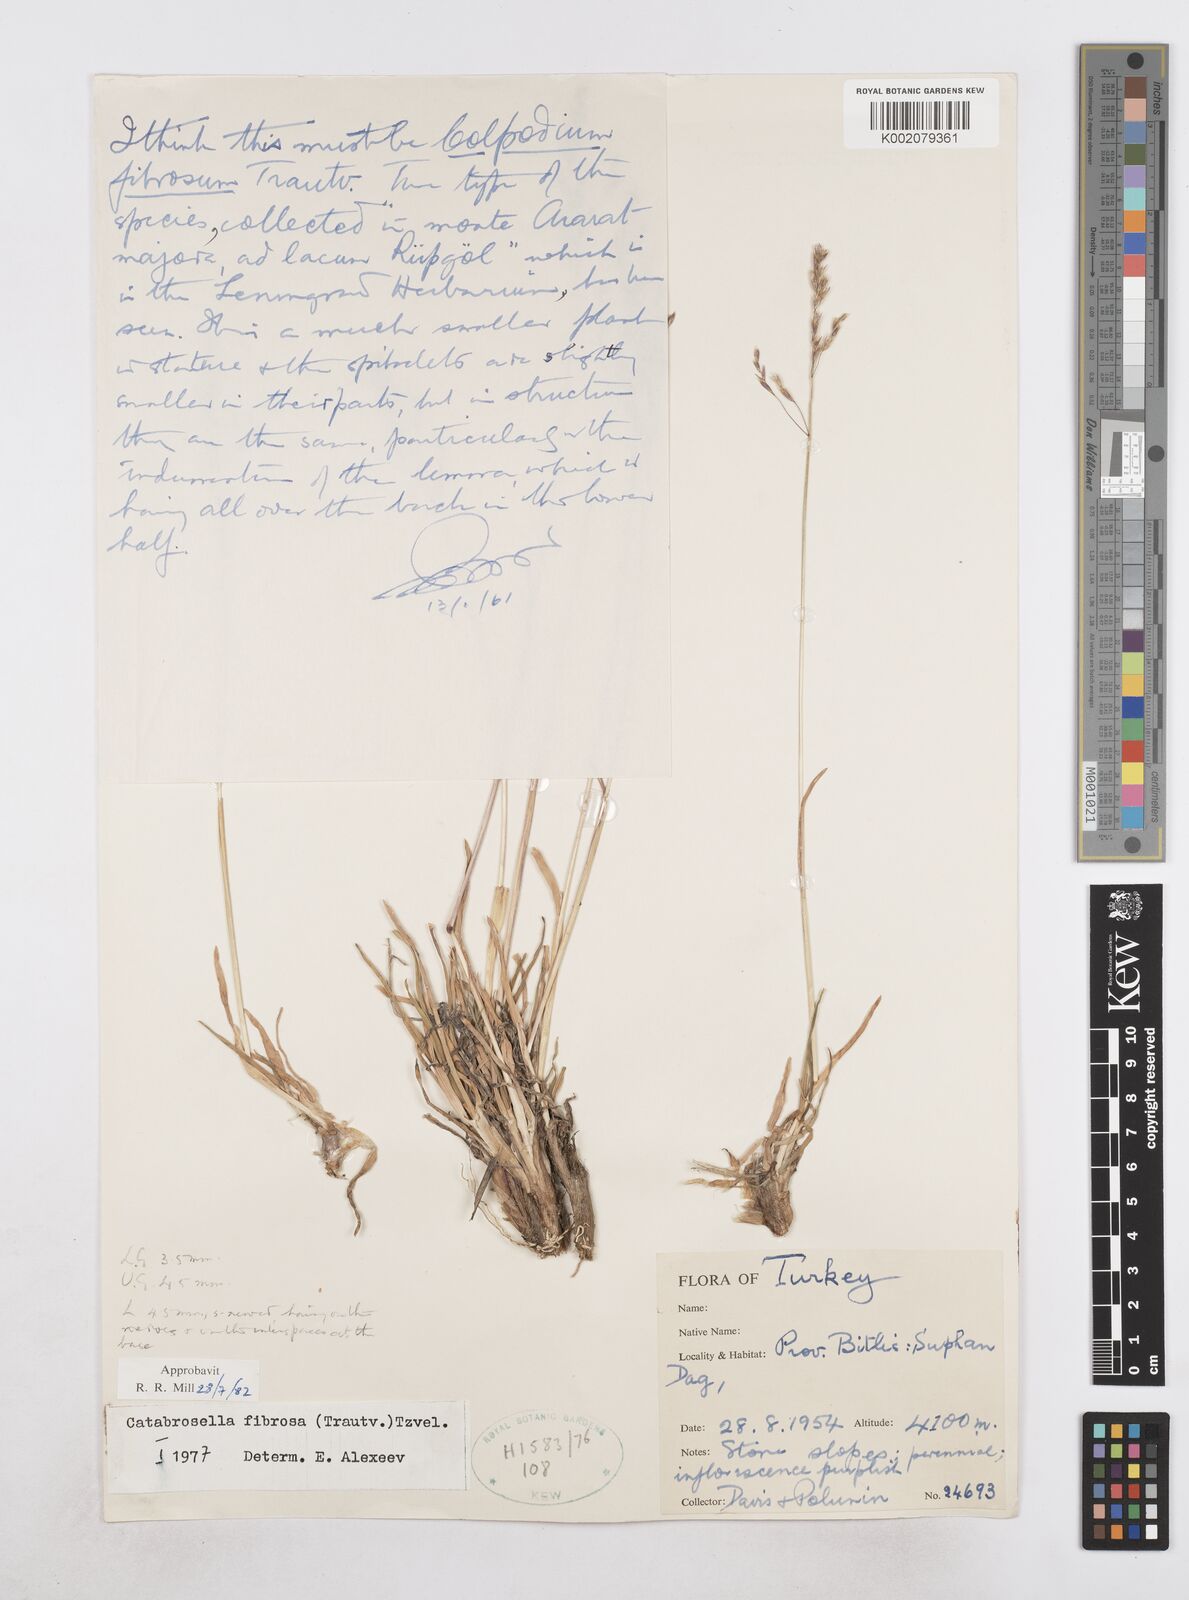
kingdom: Plantae
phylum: Tracheophyta
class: Liliopsida
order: Poales
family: Poaceae
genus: Catabrosella
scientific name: Catabrosella fibrosa
